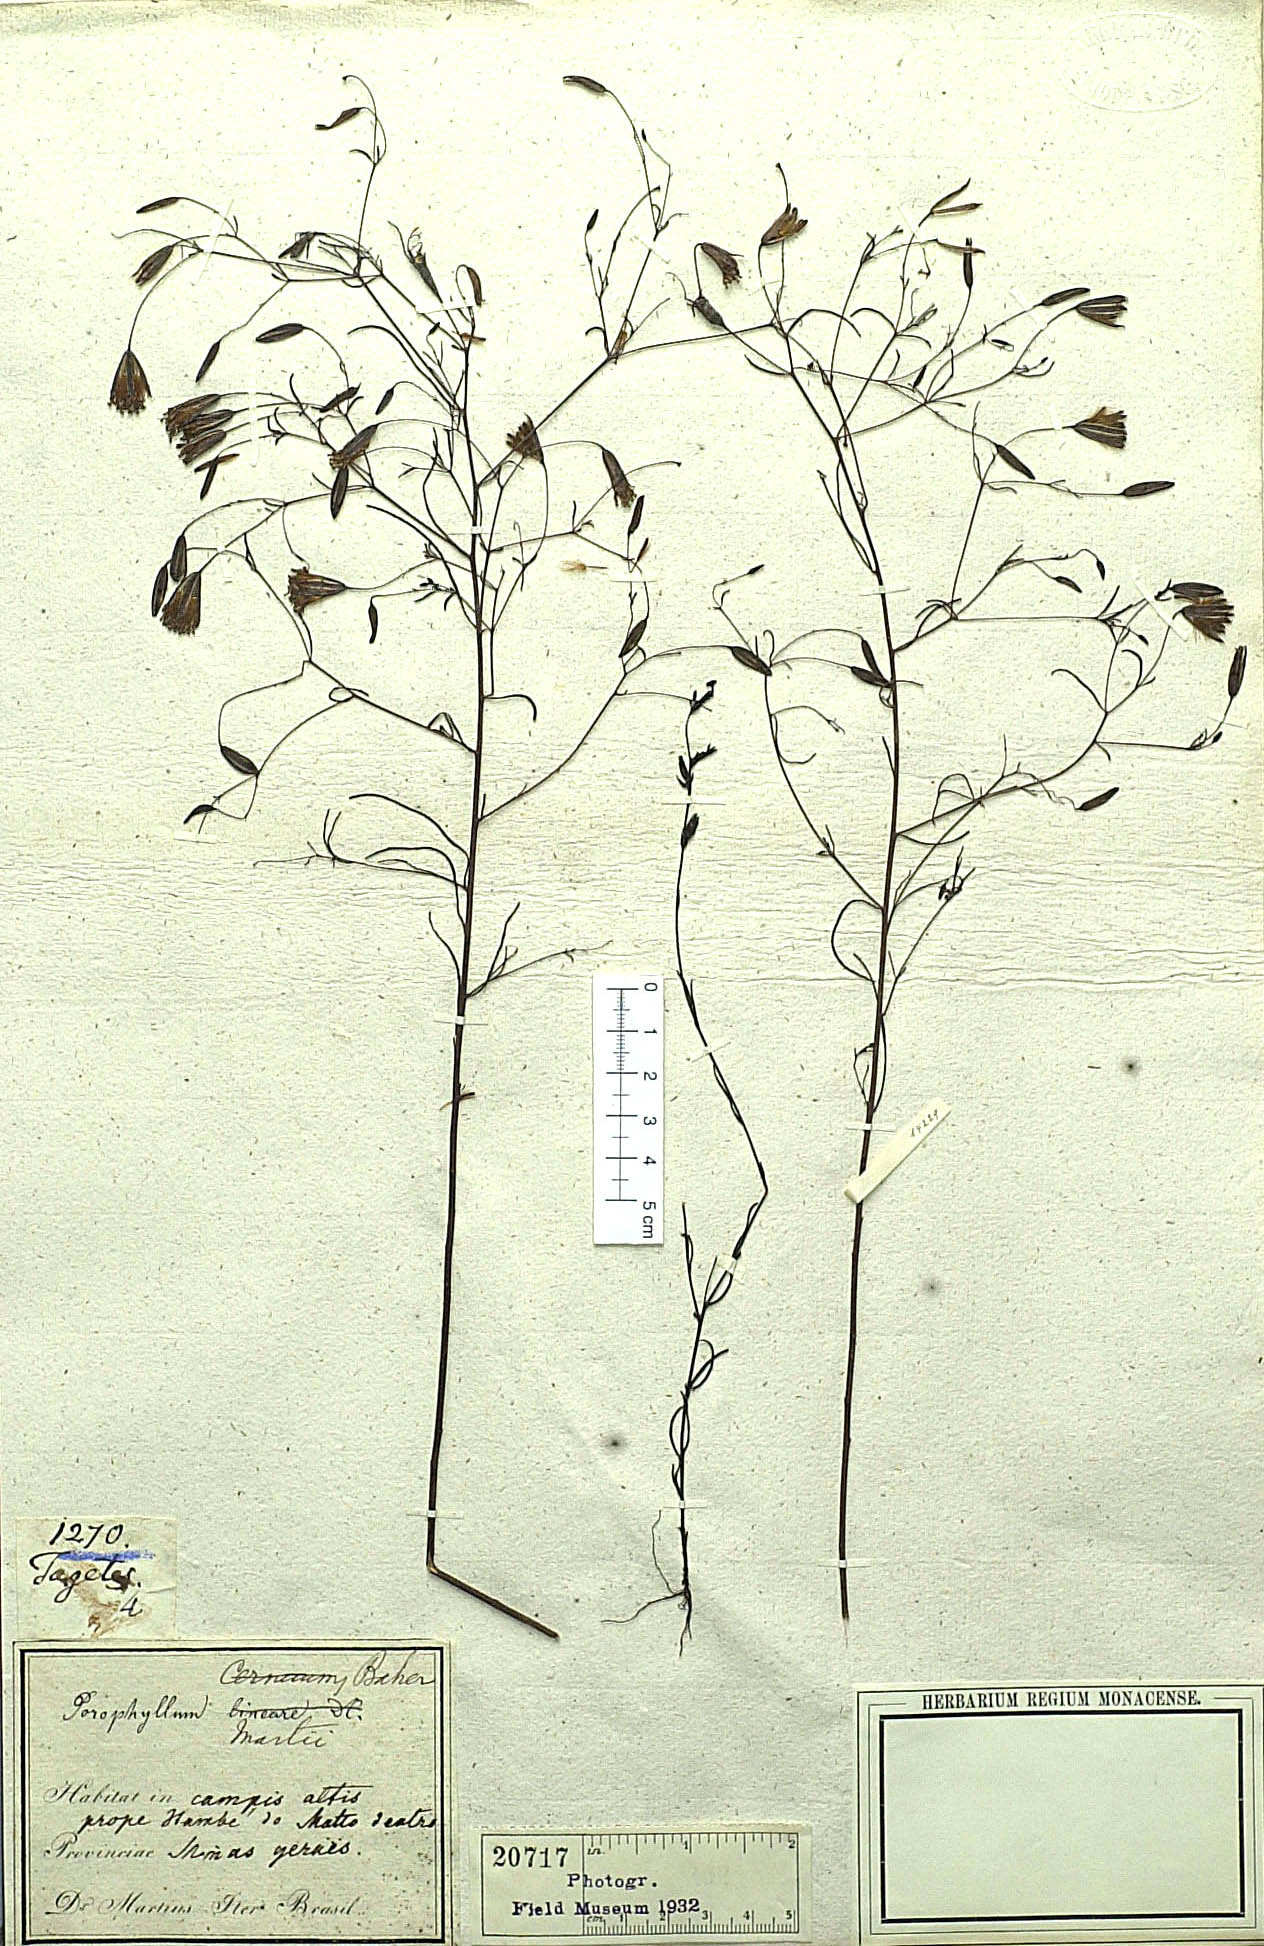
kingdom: Plantae
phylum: Tracheophyta
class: Magnoliopsida
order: Asterales
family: Asteraceae
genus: Porophyllum
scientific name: Porophyllum lanceolatum
